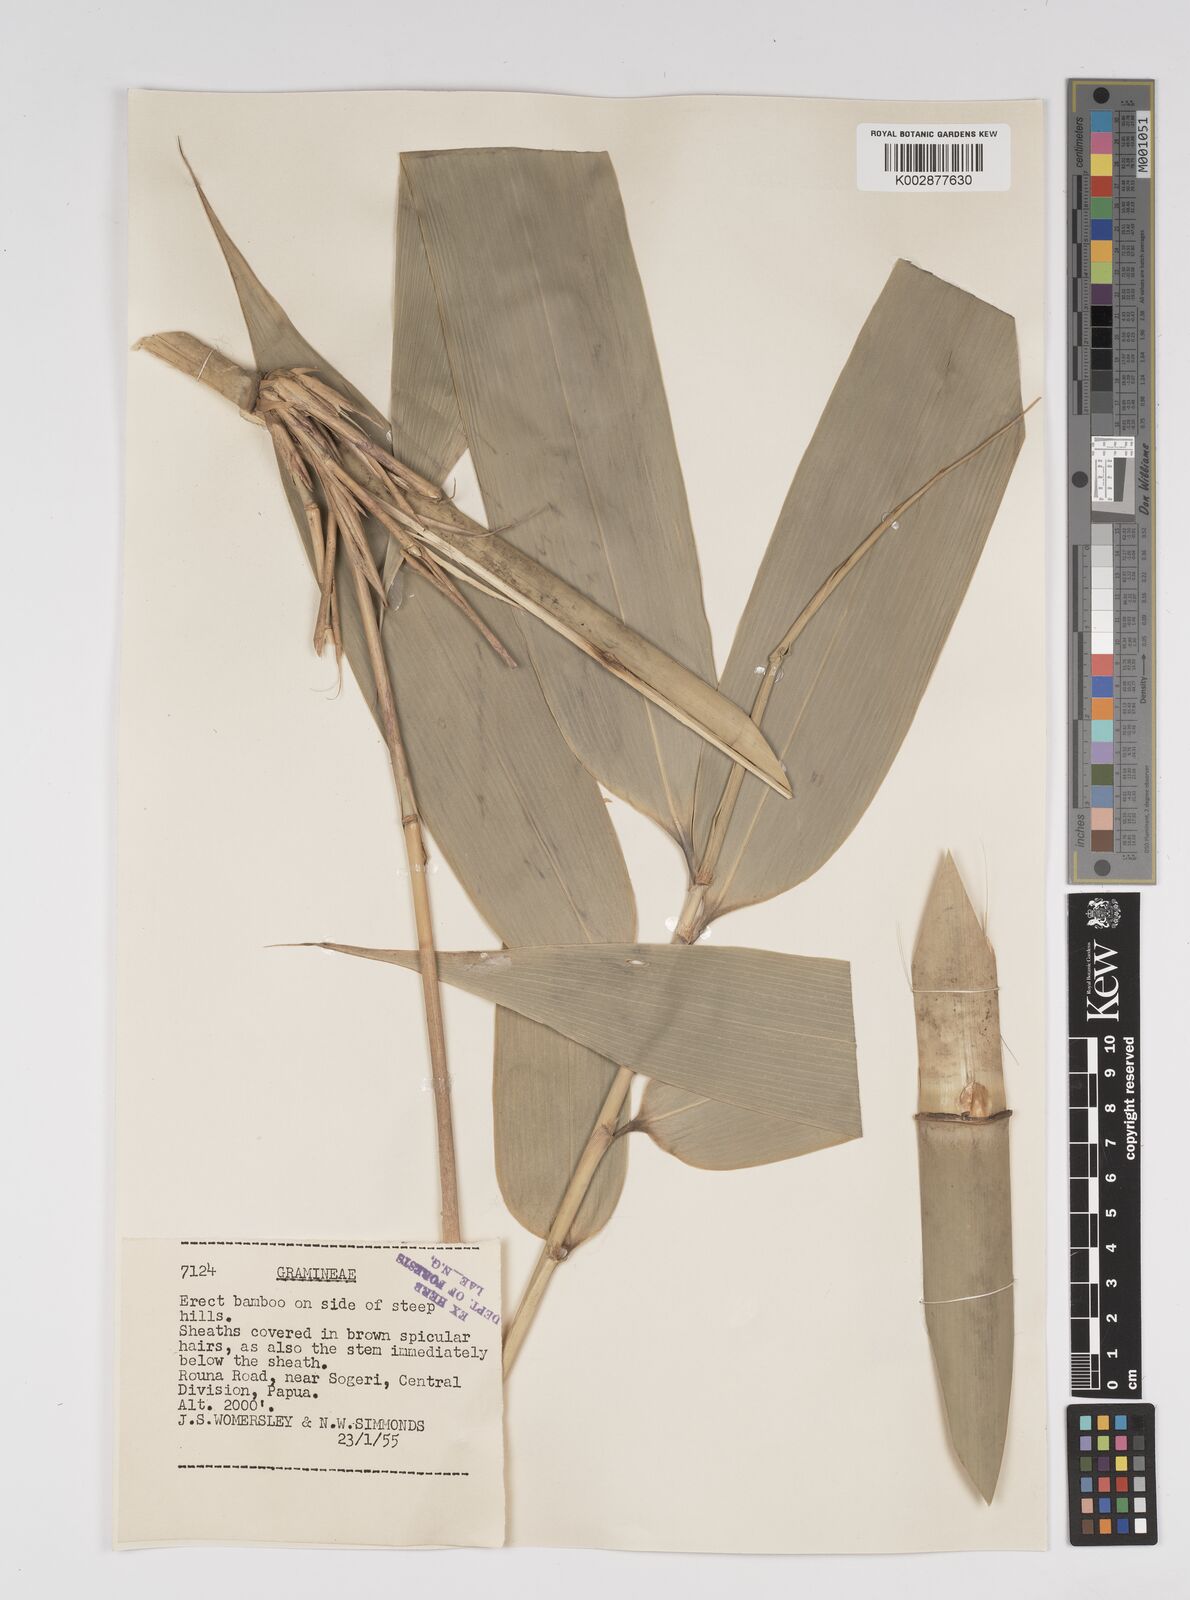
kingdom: Plantae
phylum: Tracheophyta
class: Liliopsida
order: Poales
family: Poaceae
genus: Dendrocalamus
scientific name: Dendrocalamus strictus
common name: Male bamboo
